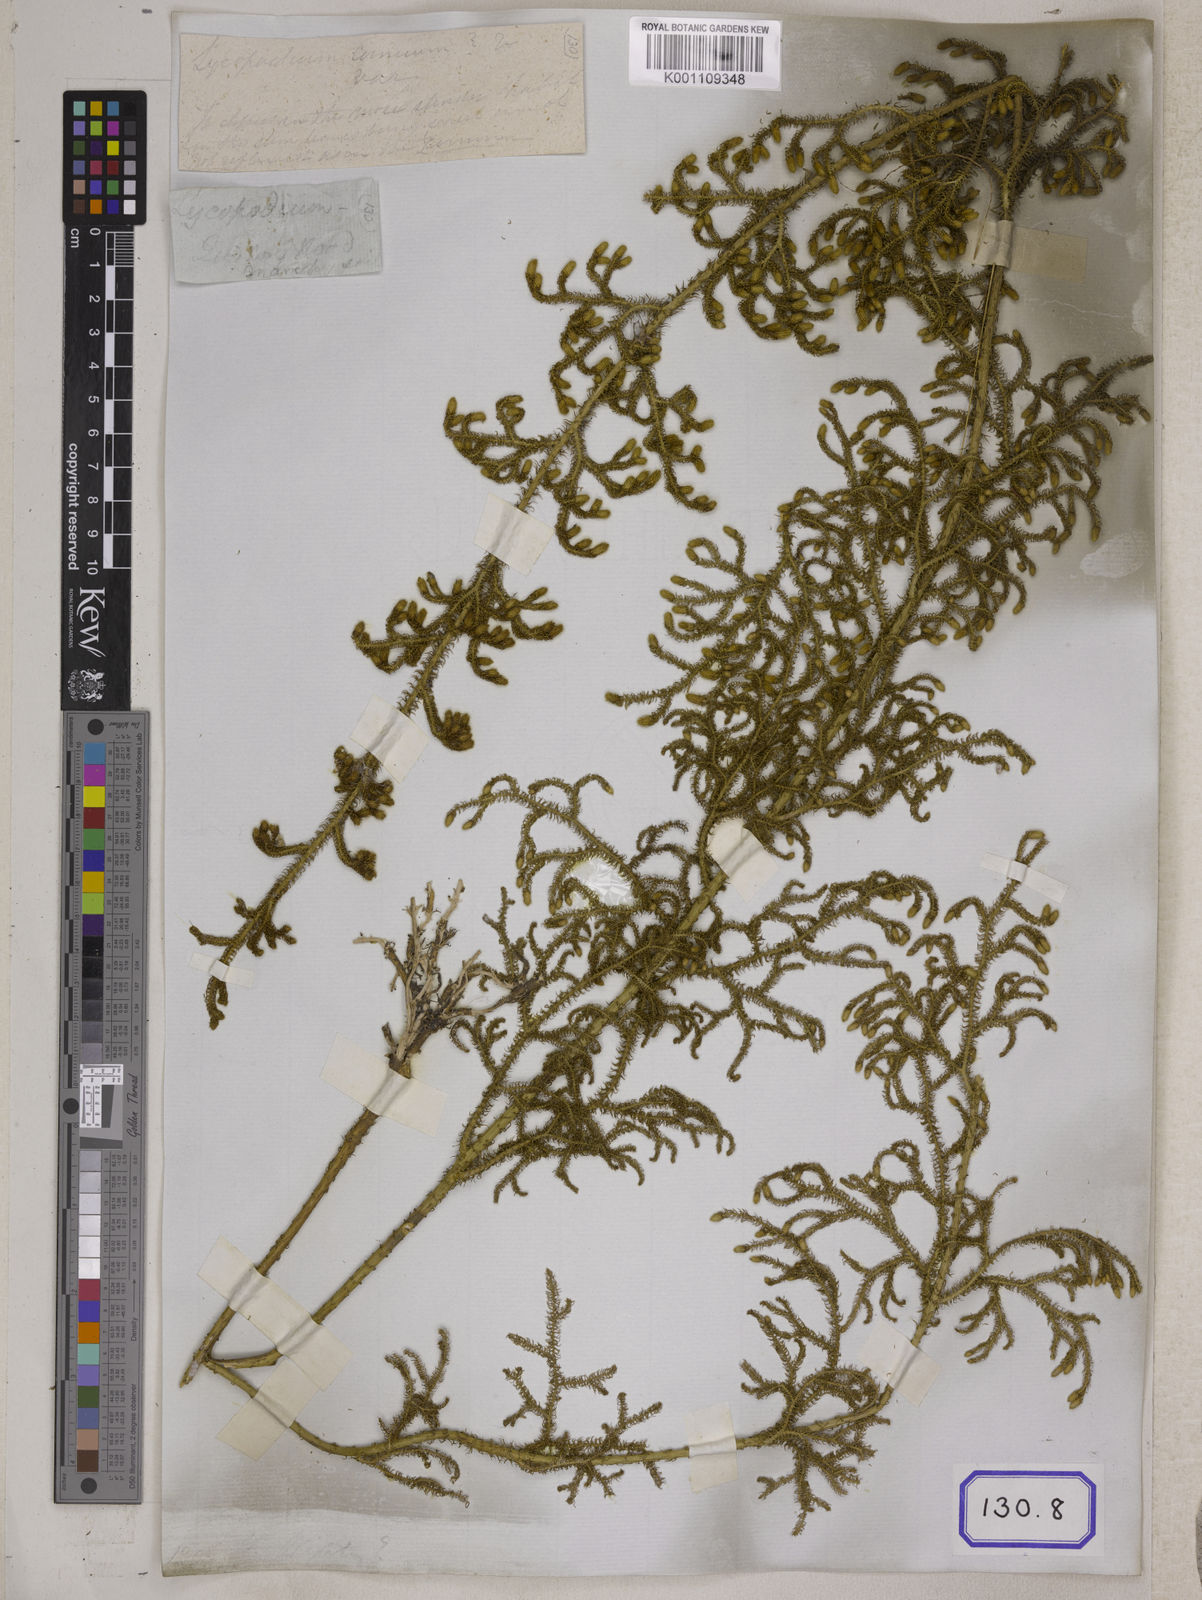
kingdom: Plantae
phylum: Tracheophyta
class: Lycopodiopsida
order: Lycopodiales
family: Lycopodiaceae
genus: Palhinhaea
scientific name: Palhinhaea cernua
